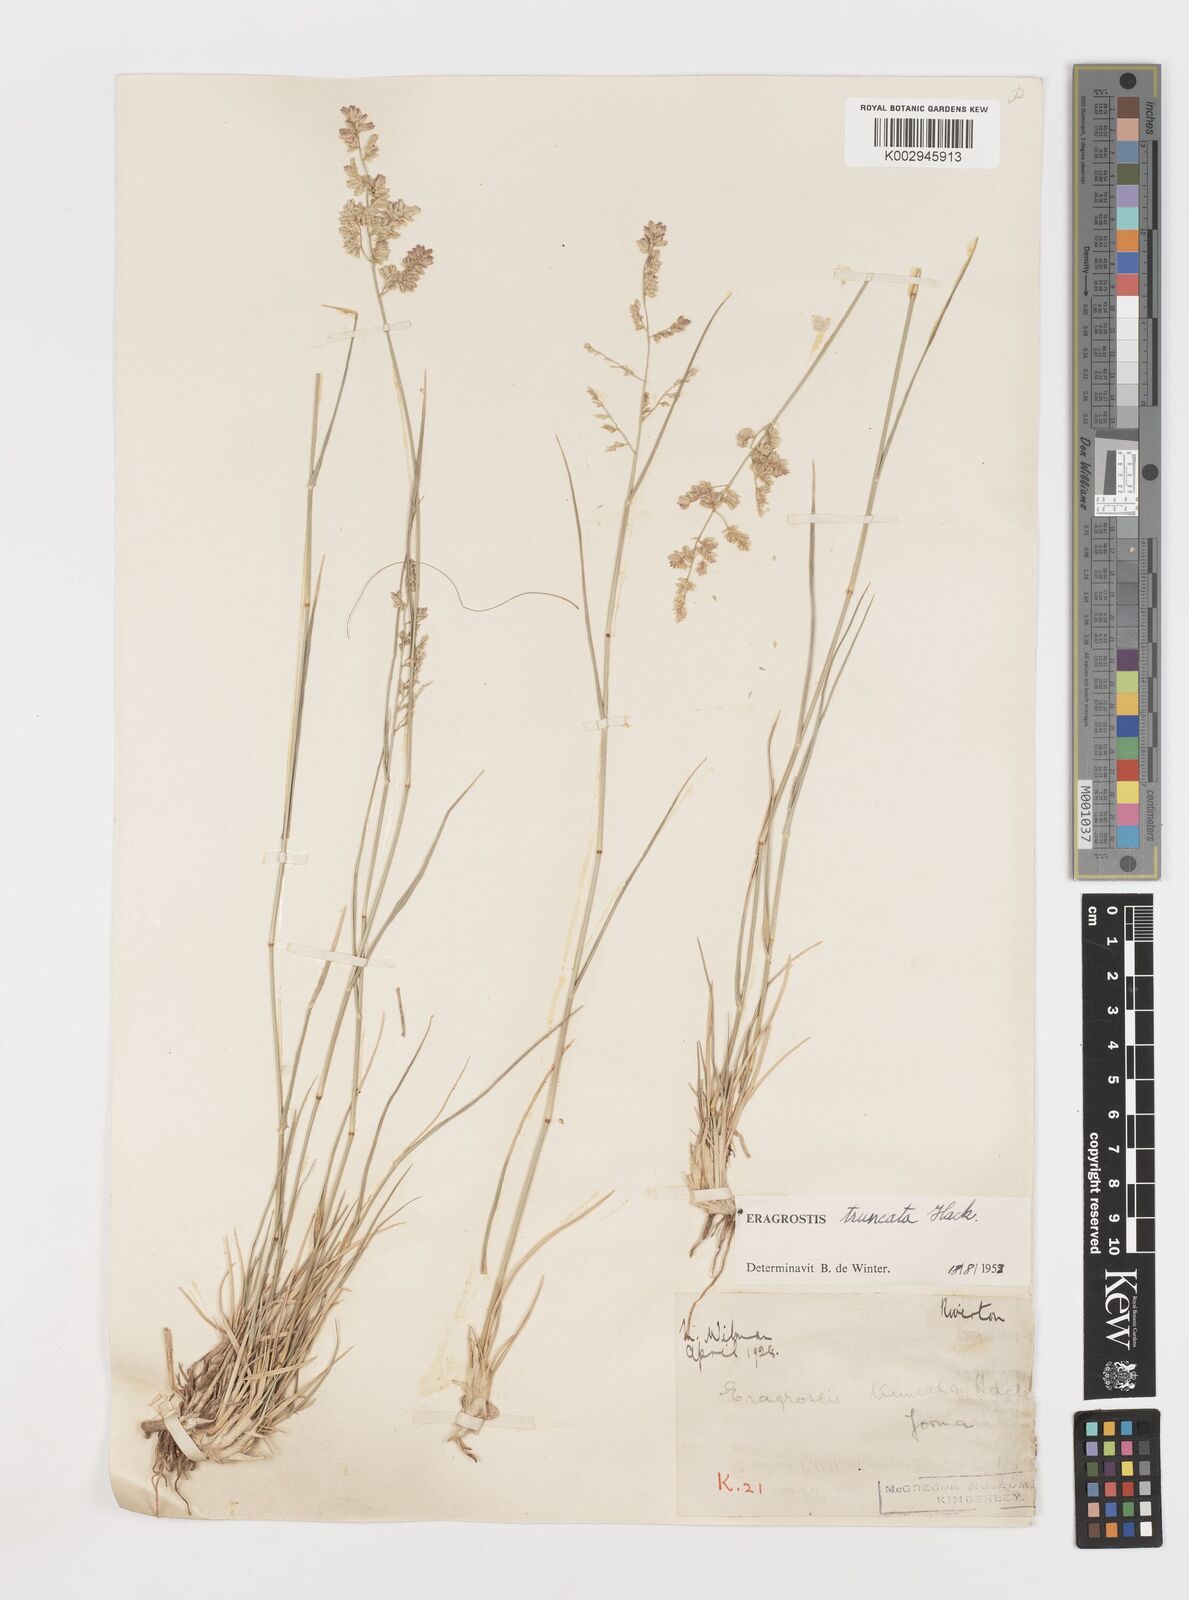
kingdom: Plantae
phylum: Tracheophyta
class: Liliopsida
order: Poales
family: Poaceae
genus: Eragrostis
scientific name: Eragrostis truncata
